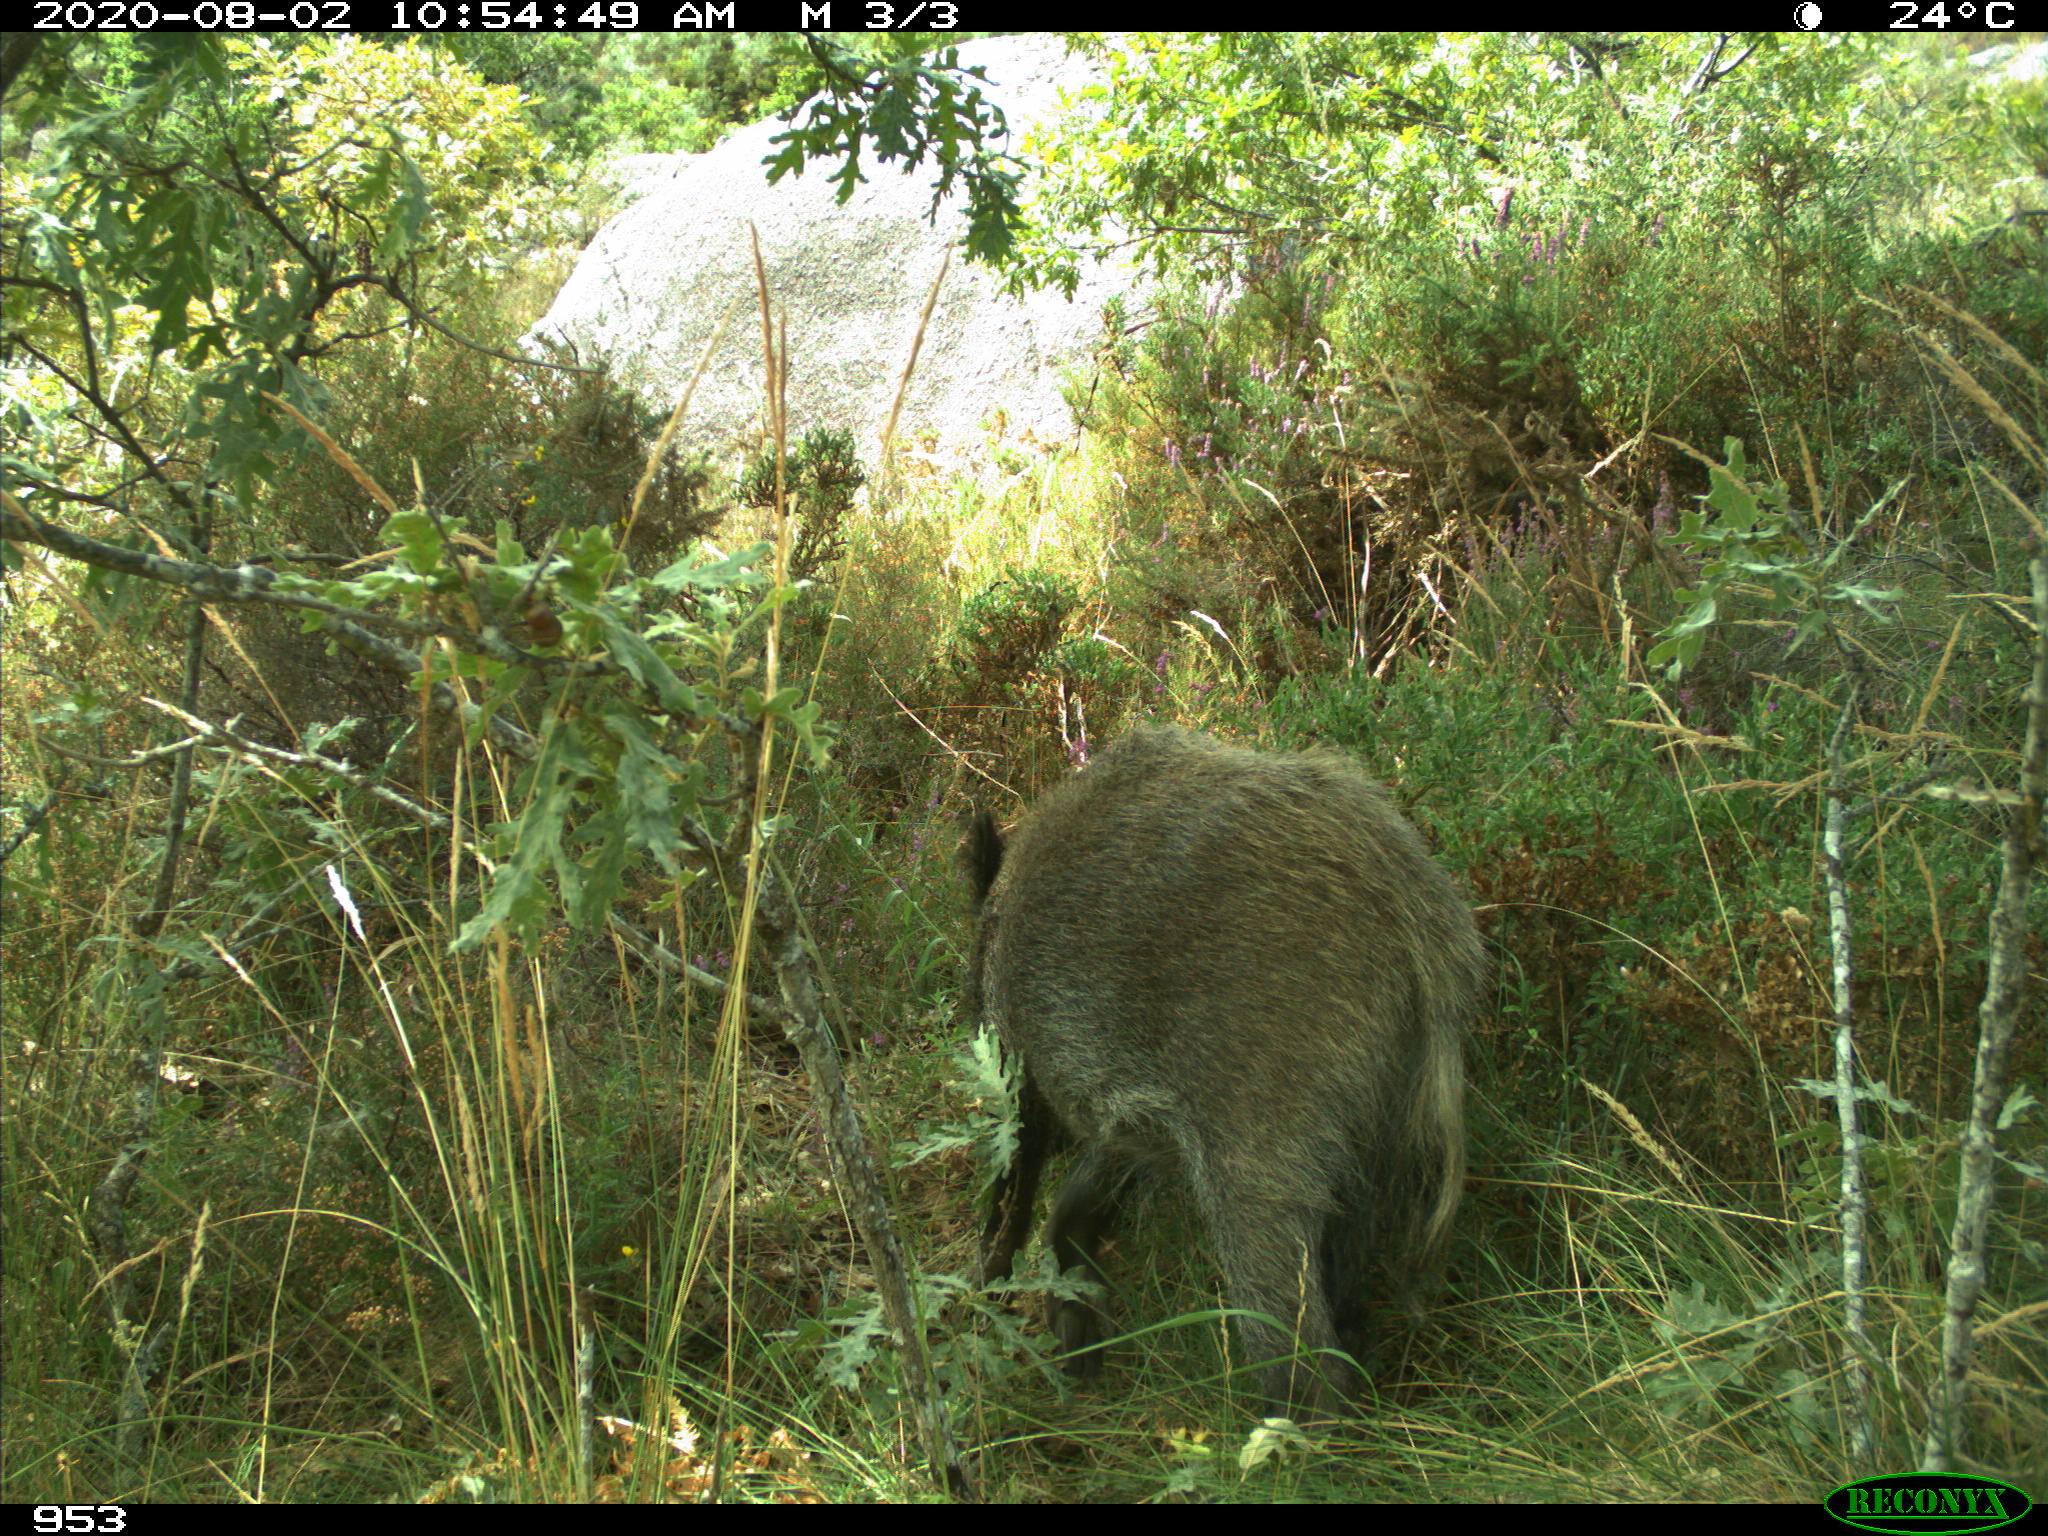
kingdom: Animalia
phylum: Chordata
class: Mammalia
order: Artiodactyla
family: Suidae
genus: Sus
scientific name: Sus scrofa
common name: Wild boar
